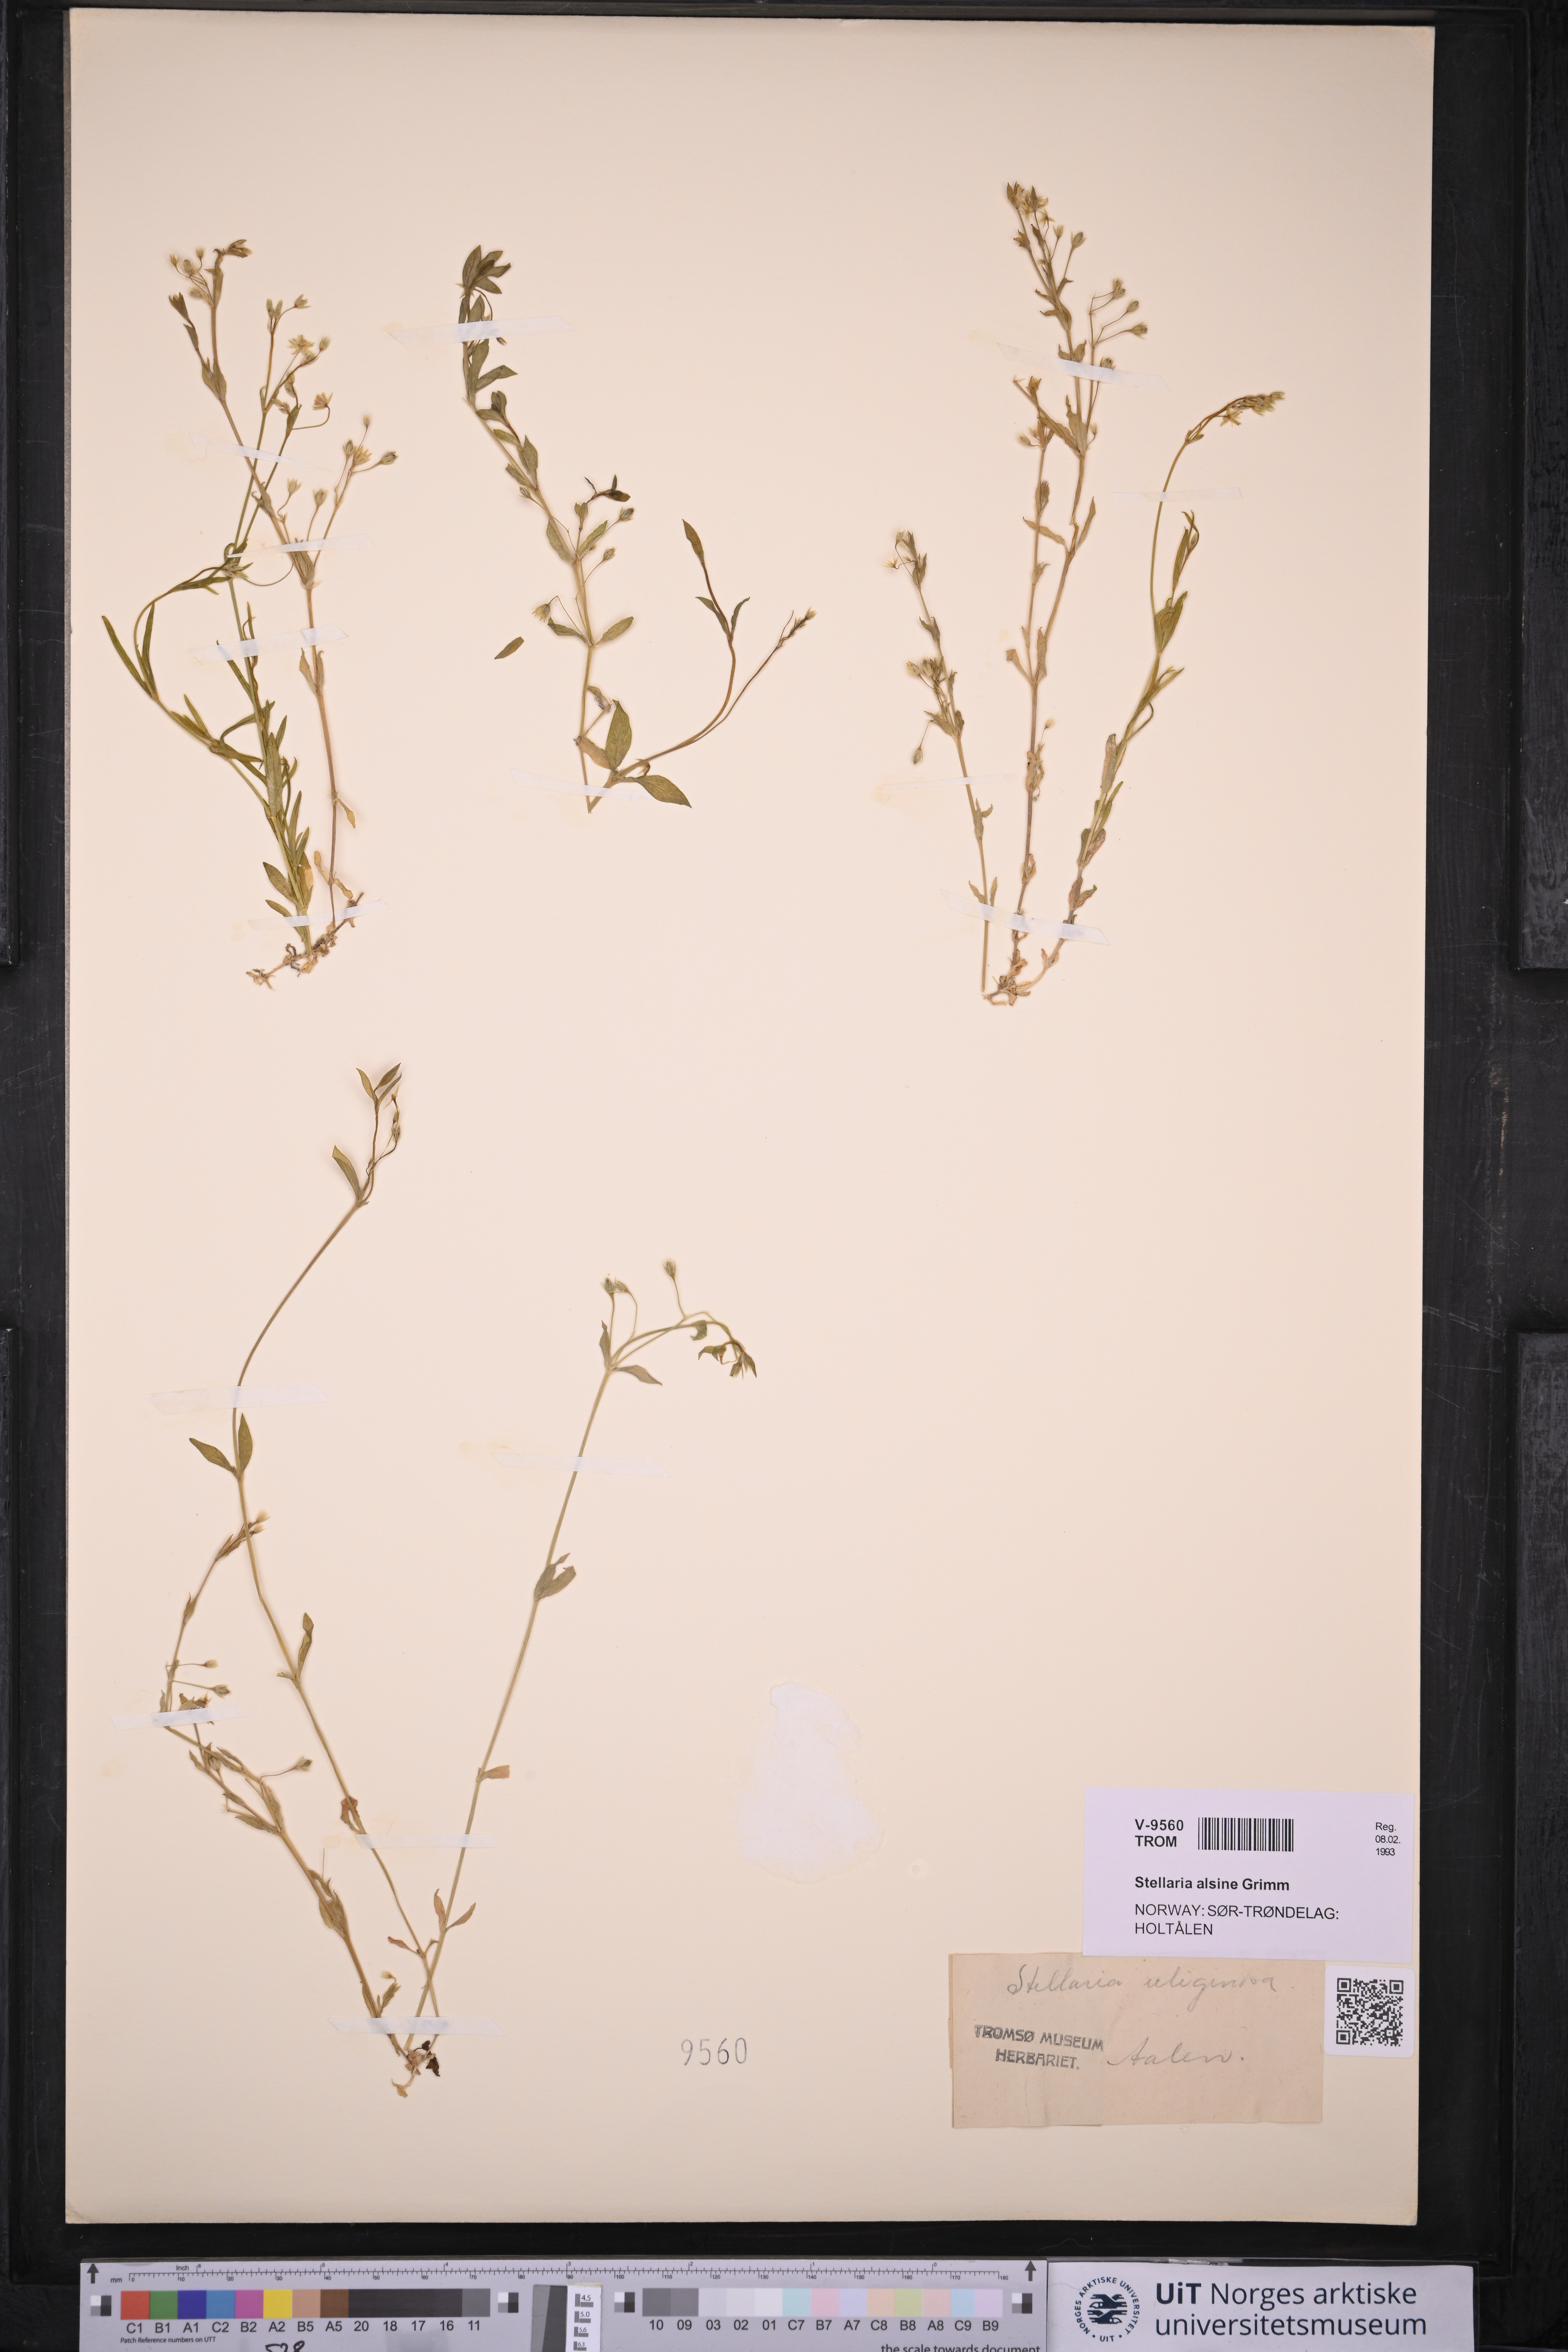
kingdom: Plantae
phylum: Tracheophyta
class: Magnoliopsida
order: Caryophyllales
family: Caryophyllaceae
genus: Stellaria
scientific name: Stellaria alsine
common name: Bog stitchwort
